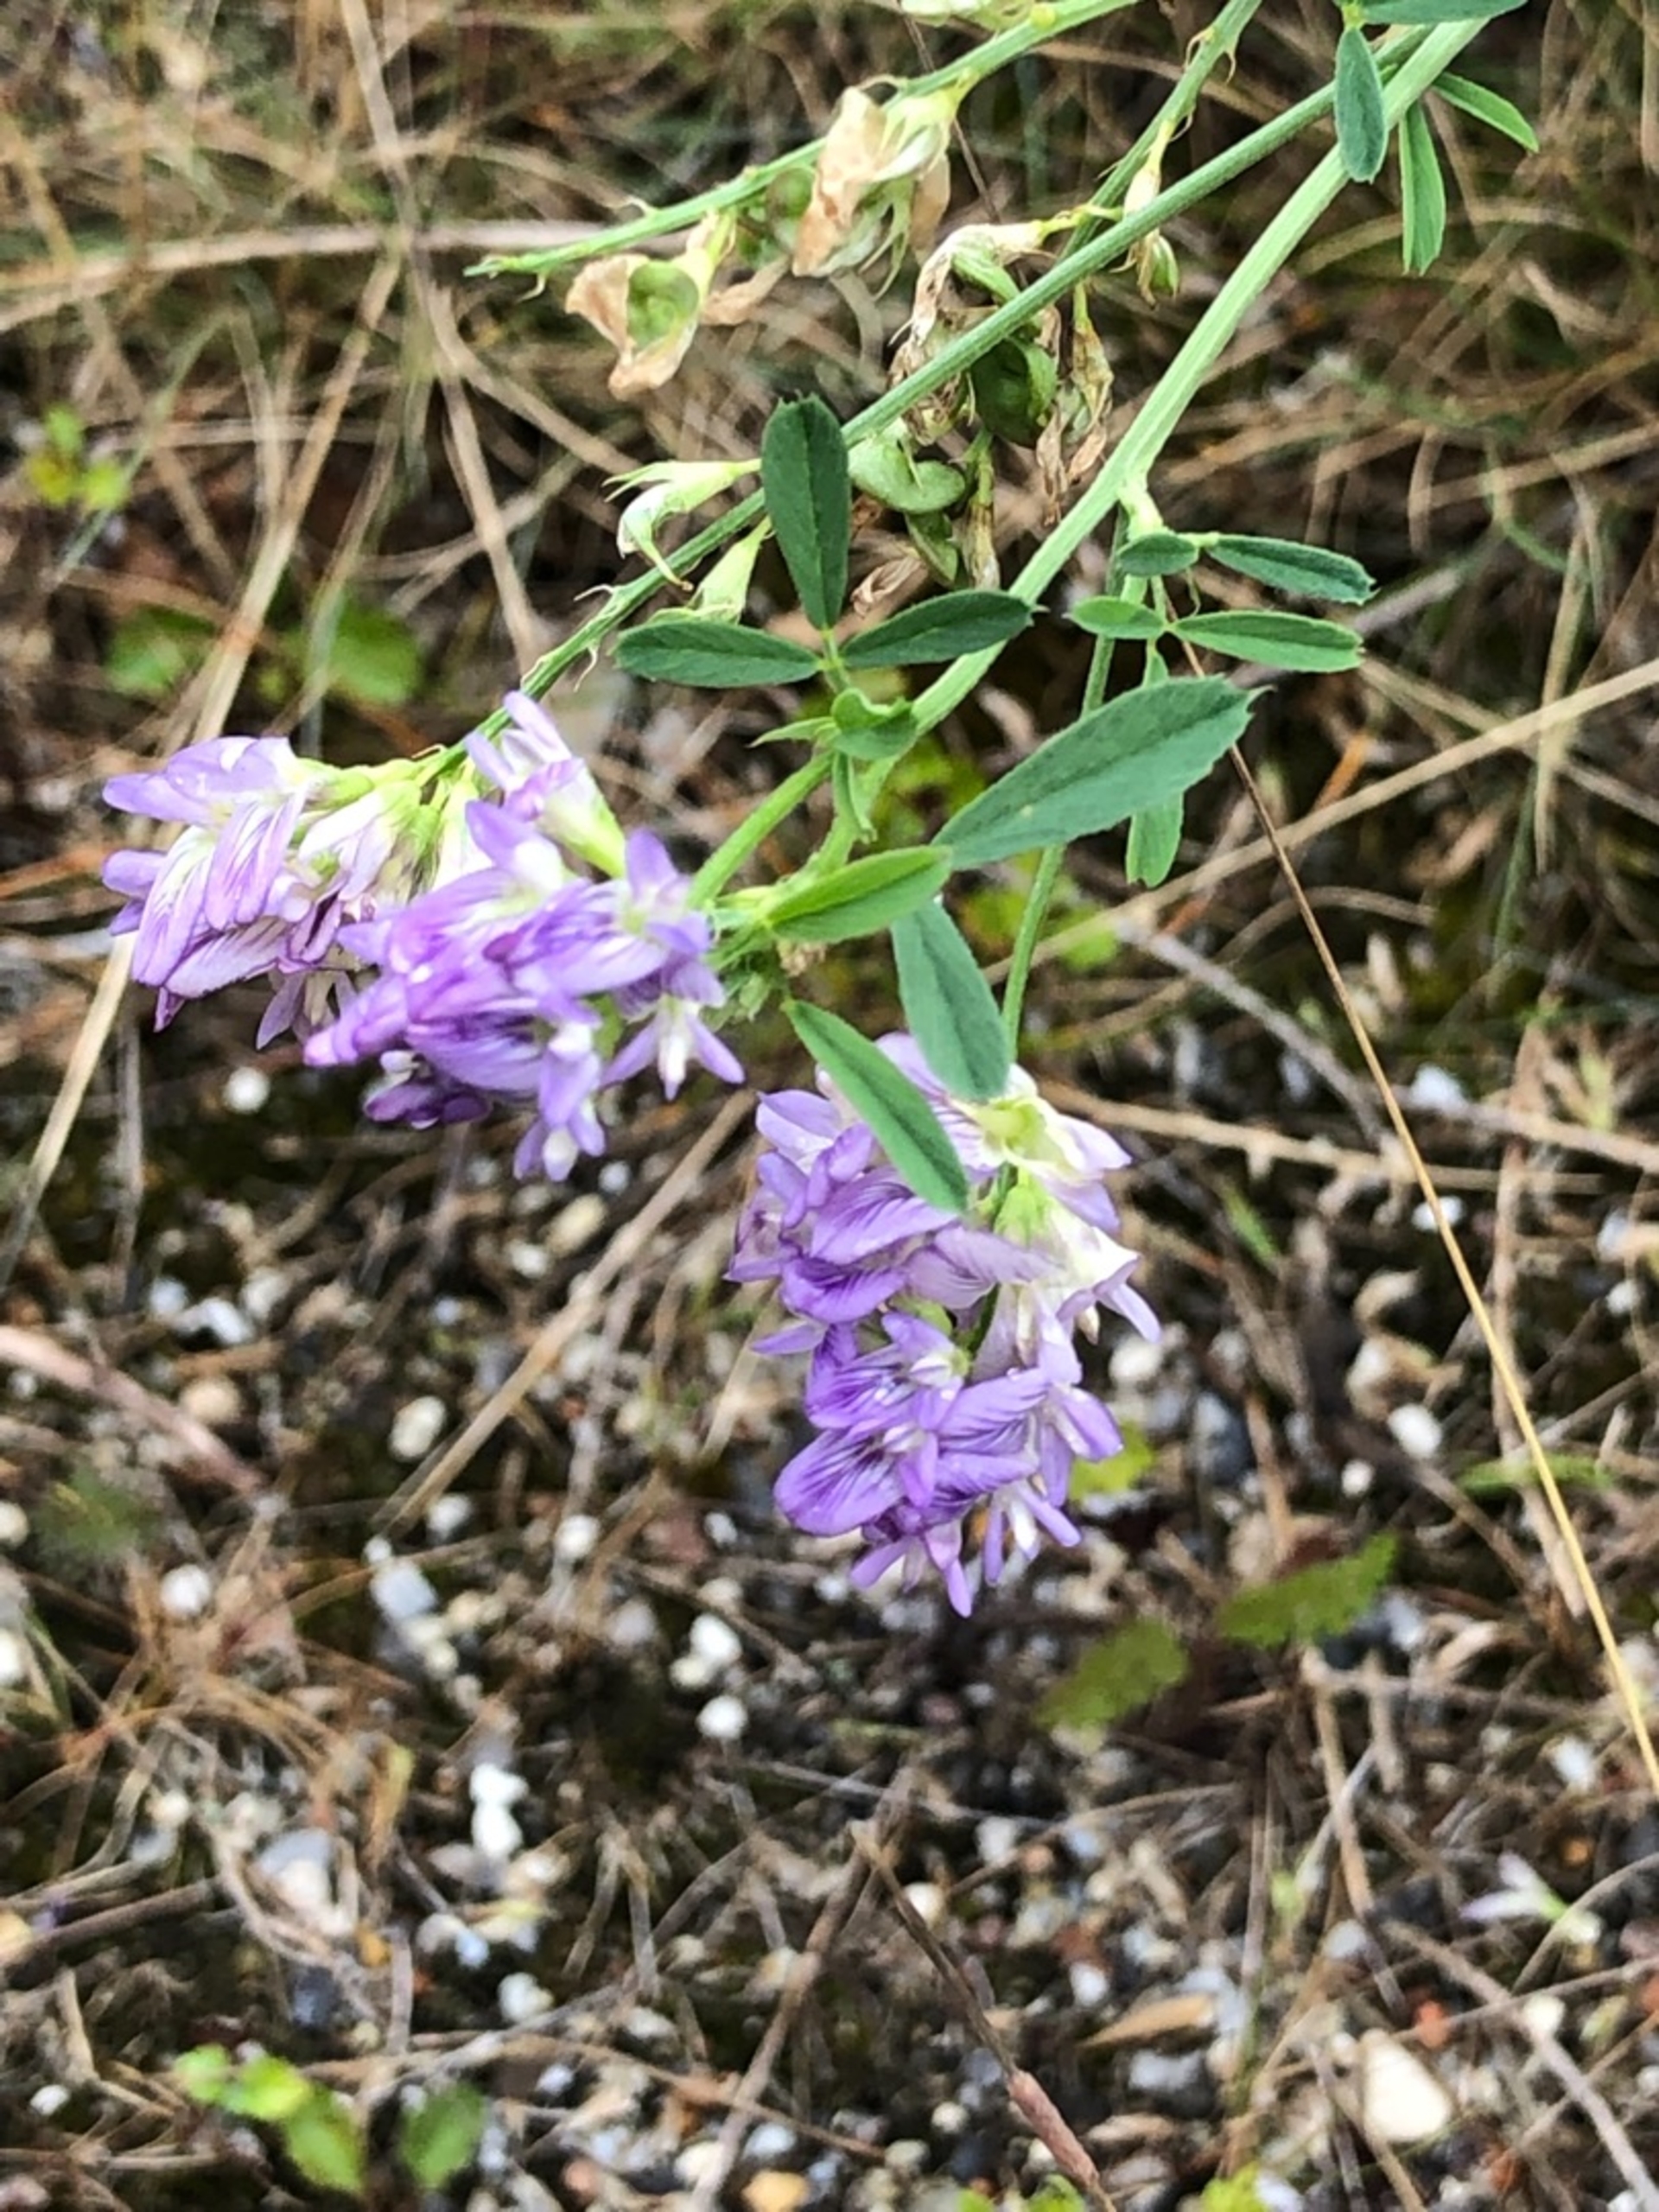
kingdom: Plantae
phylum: Tracheophyta
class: Magnoliopsida
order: Fabales
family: Fabaceae
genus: Medicago
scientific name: Medicago sativa
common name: Lucerne
